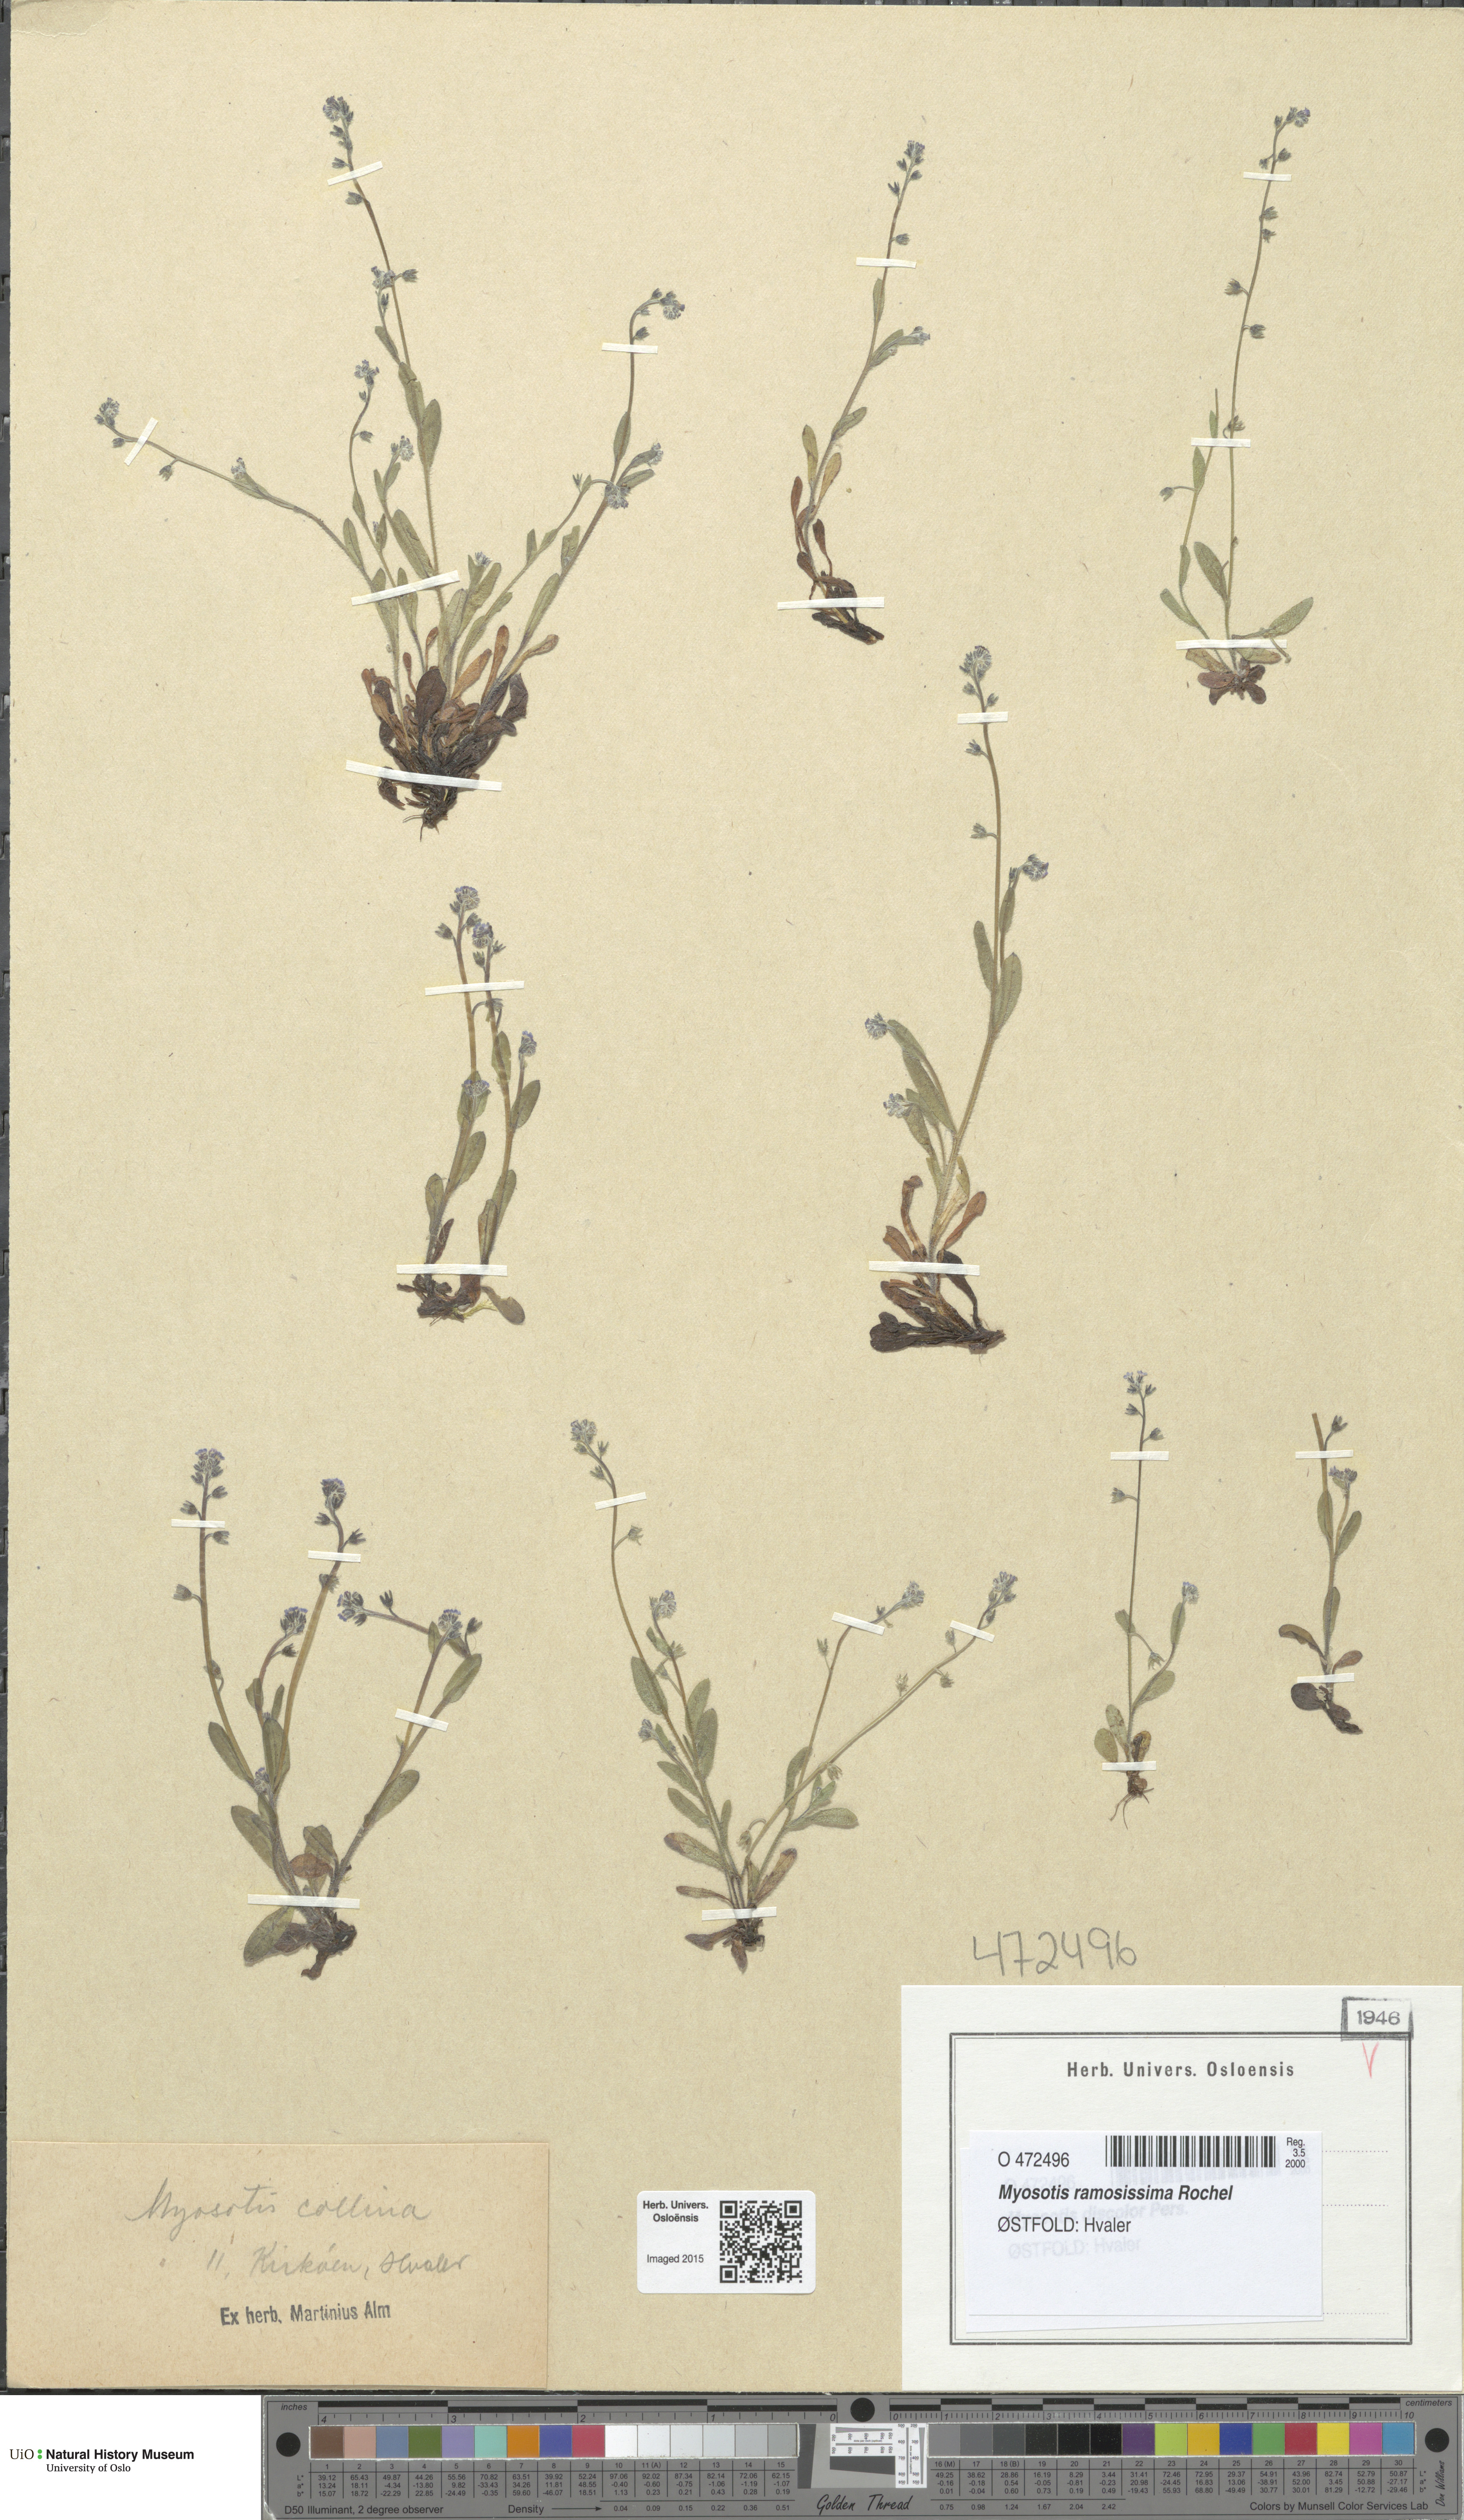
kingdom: Plantae
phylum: Tracheophyta
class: Magnoliopsida
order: Boraginales
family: Boraginaceae
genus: Myosotis
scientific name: Myosotis ramosissima
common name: Early forget-me-not
